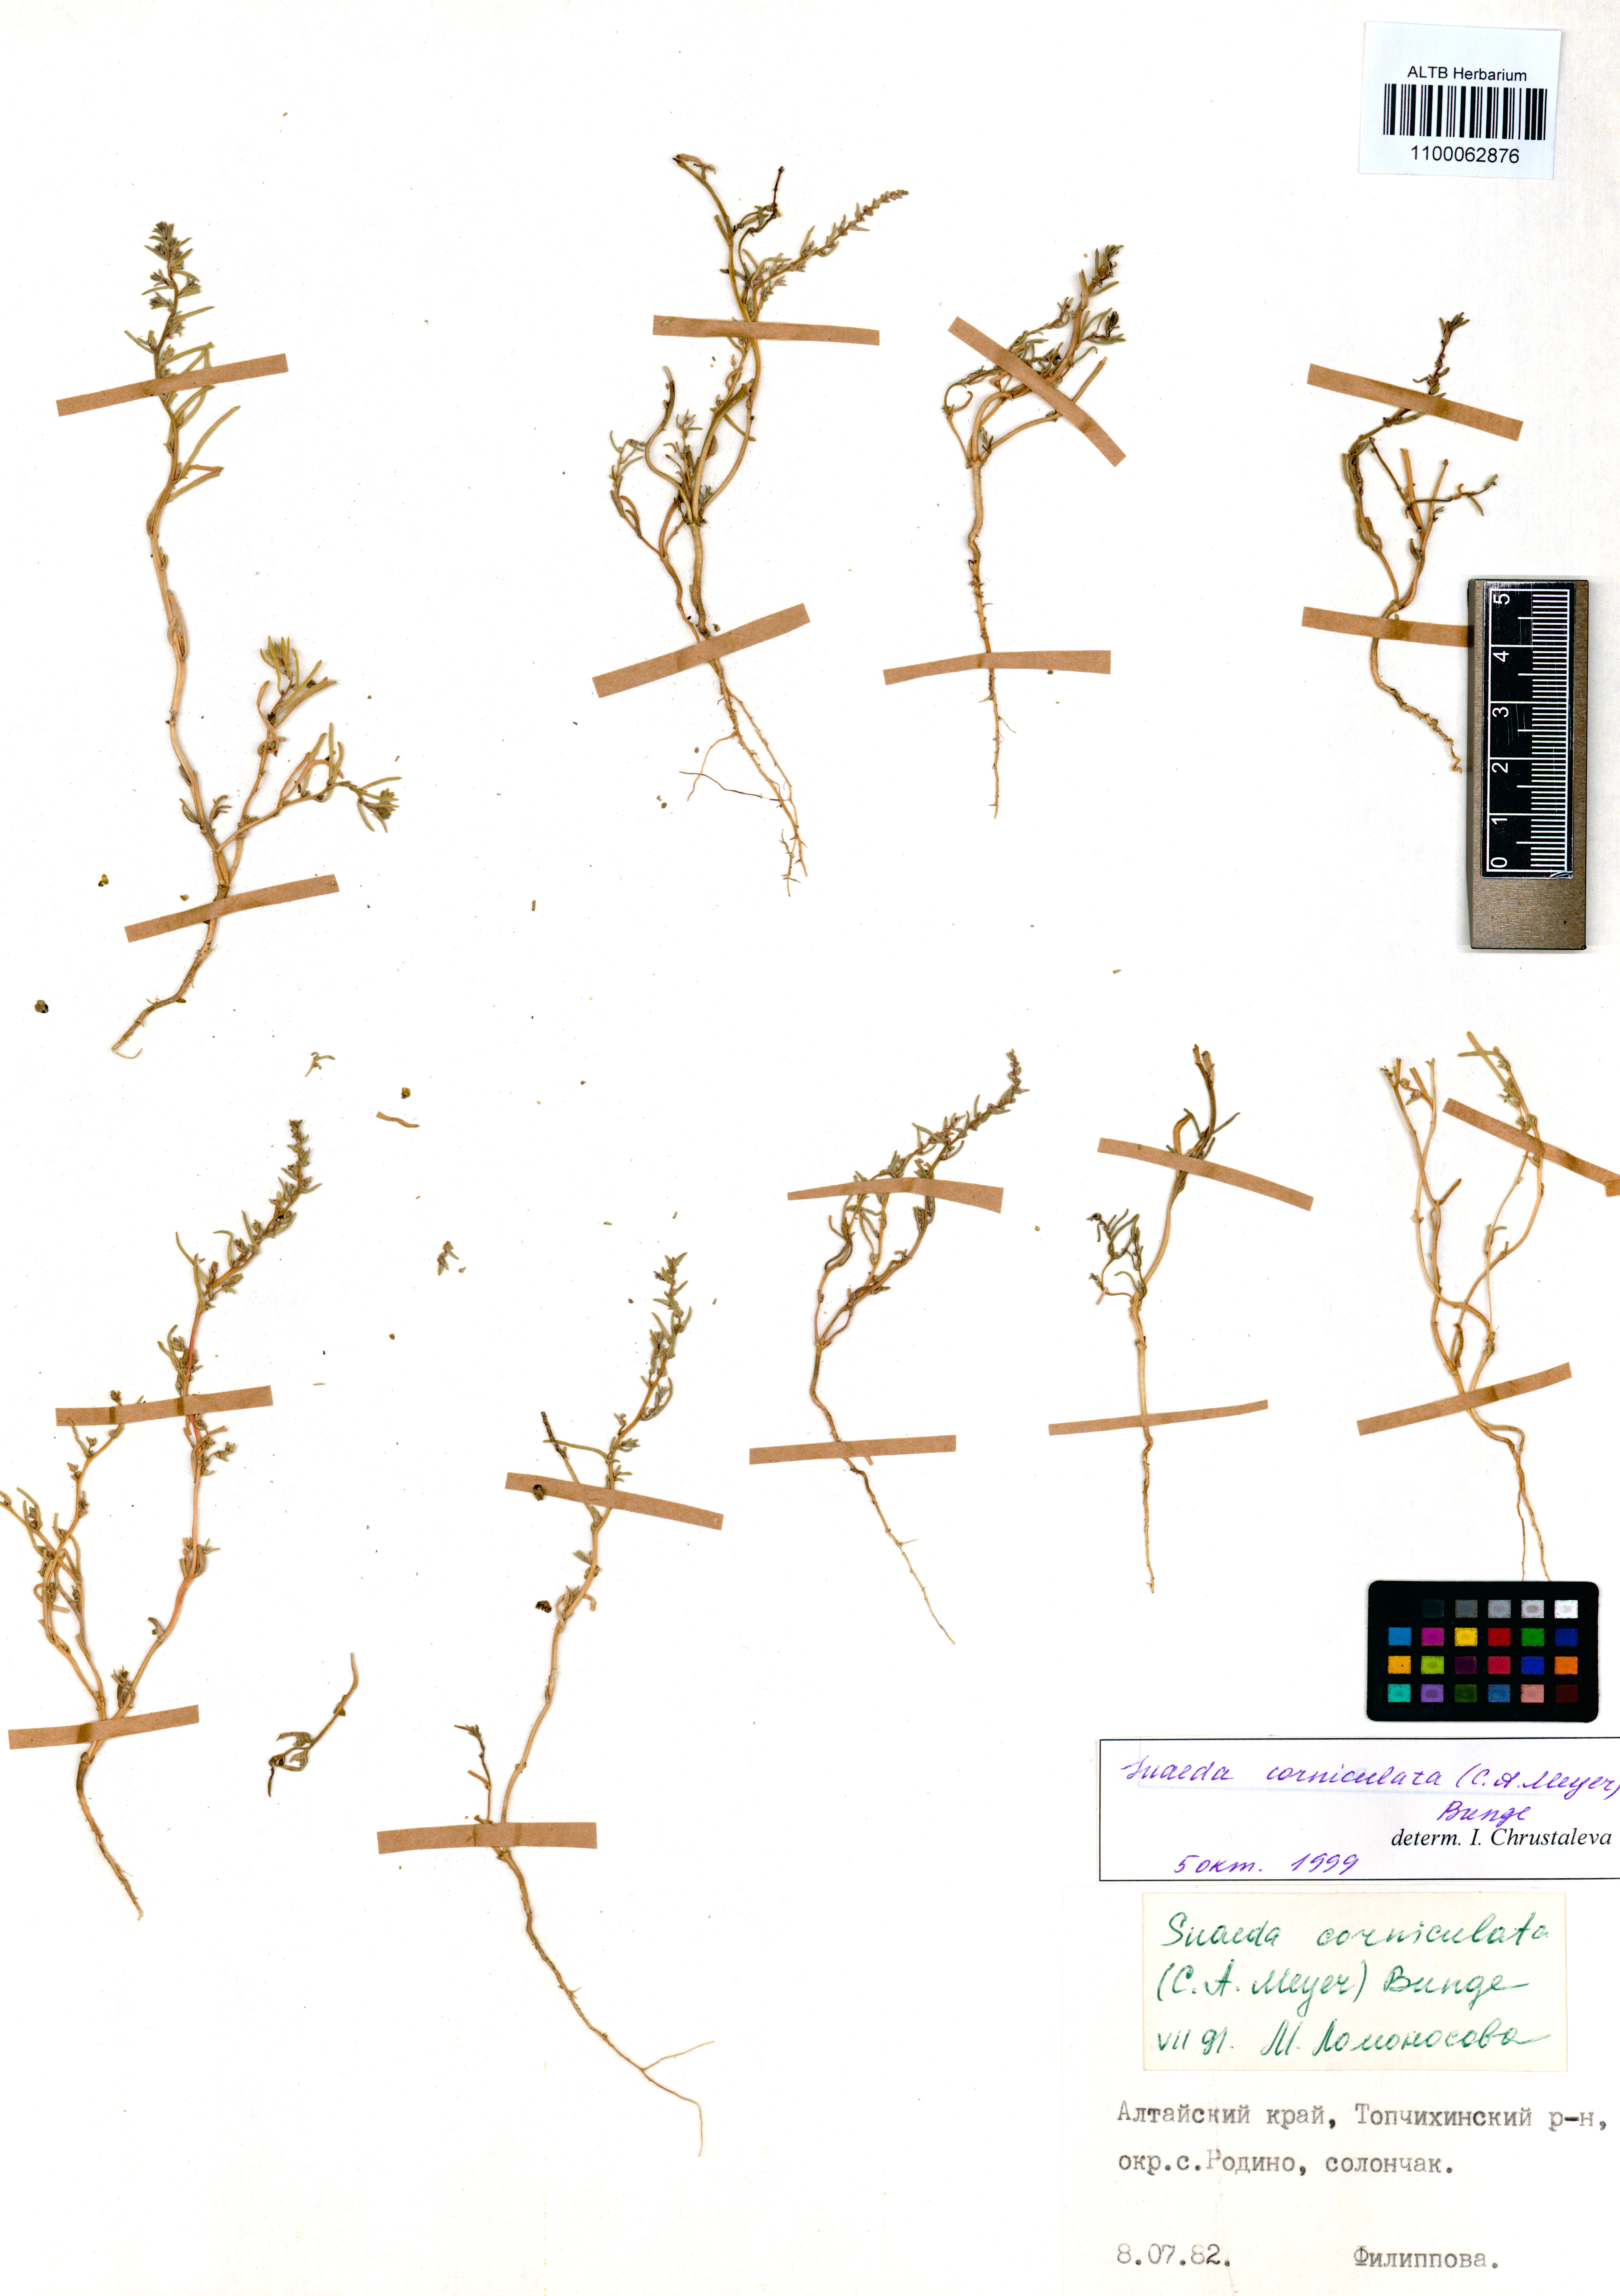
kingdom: Plantae
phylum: Tracheophyta
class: Magnoliopsida
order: Caryophyllales
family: Amaranthaceae
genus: Suaeda
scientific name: Suaeda corniculata
